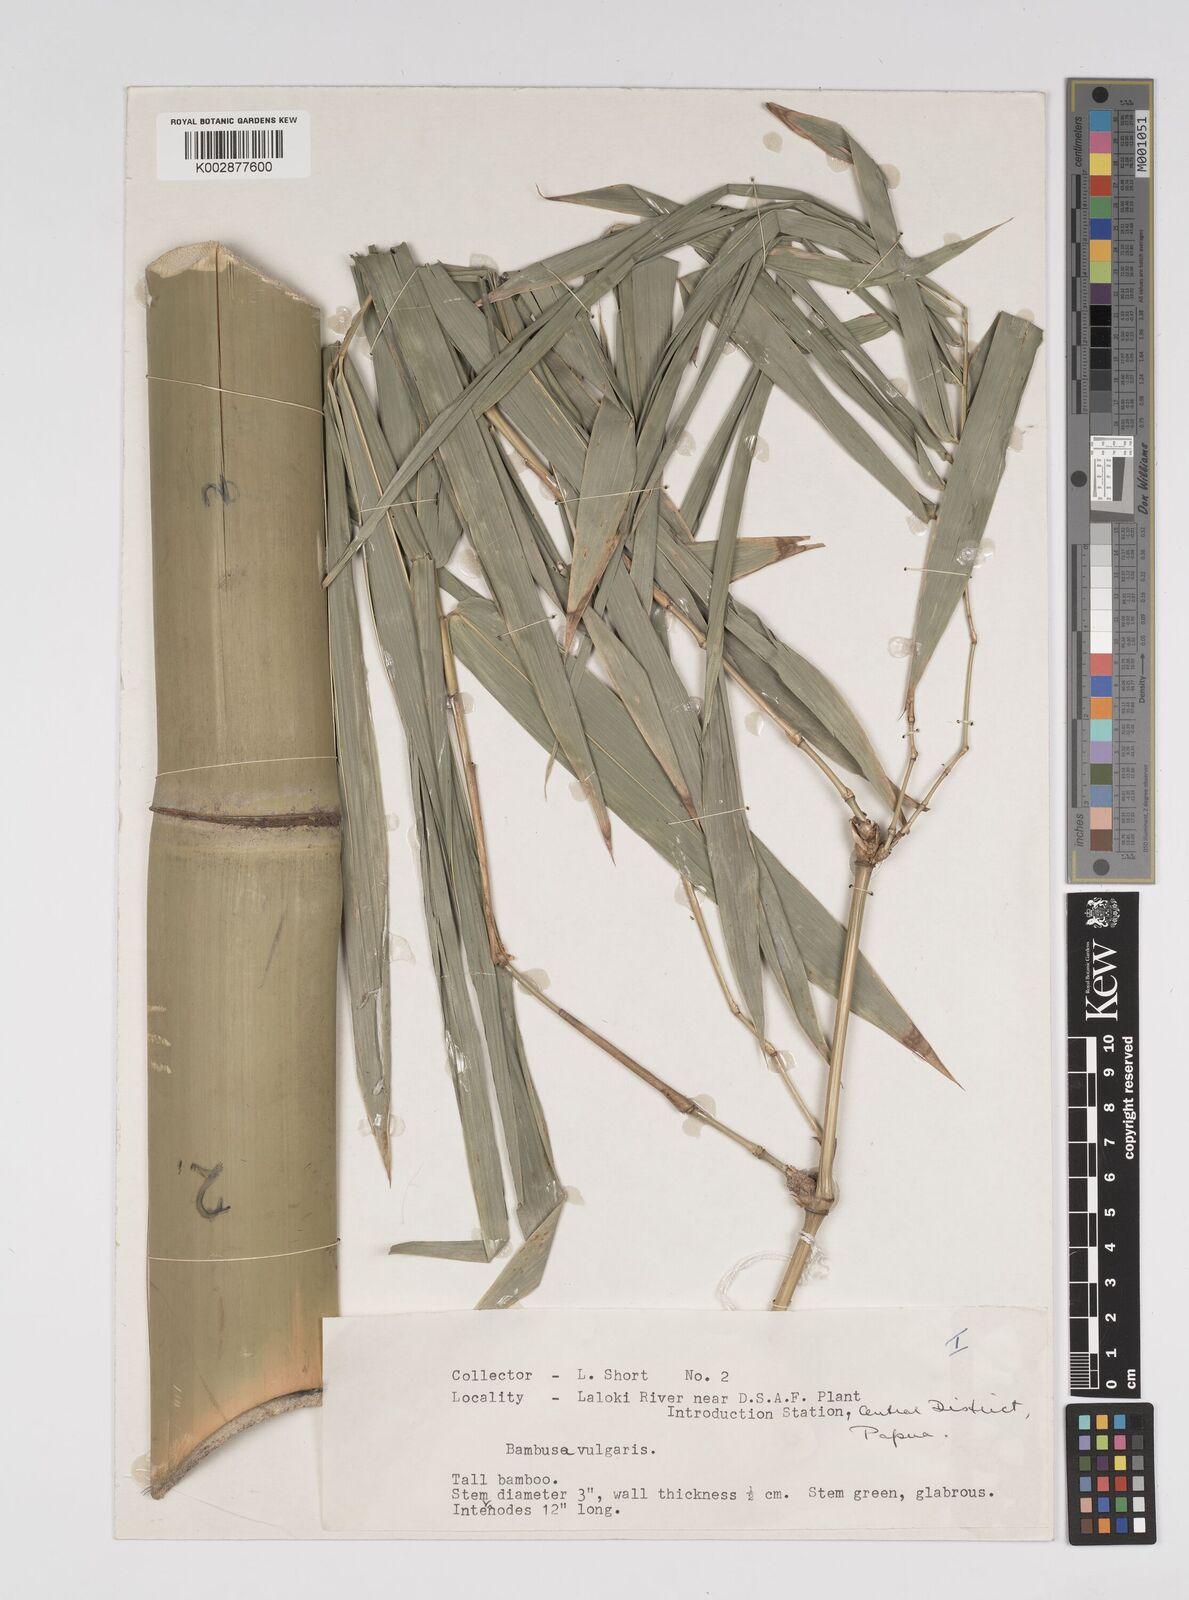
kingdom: Plantae
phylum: Tracheophyta
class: Liliopsida
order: Poales
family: Poaceae
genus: Bambusa
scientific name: Bambusa balcooa
